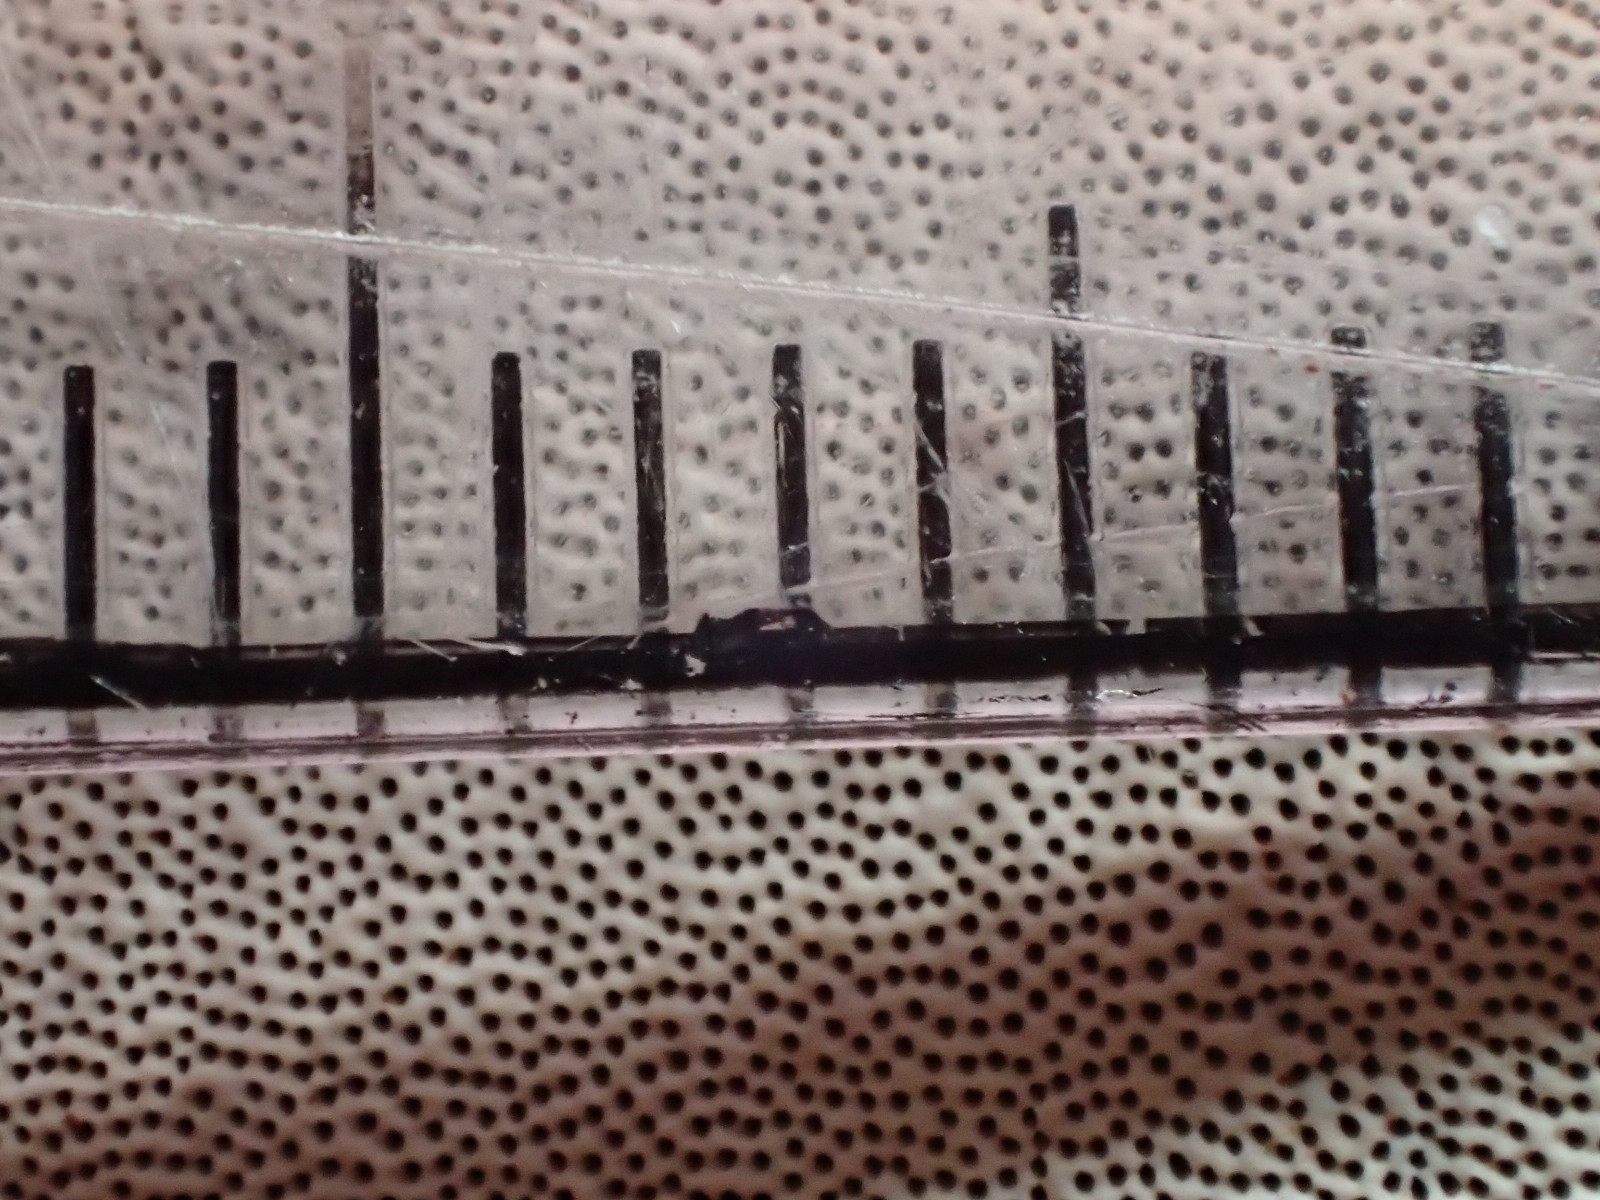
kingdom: Fungi
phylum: Basidiomycota
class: Agaricomycetes
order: Polyporales
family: Polyporaceae
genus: Ganoderma
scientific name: Ganoderma applanatum
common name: flad lakporesvamp
